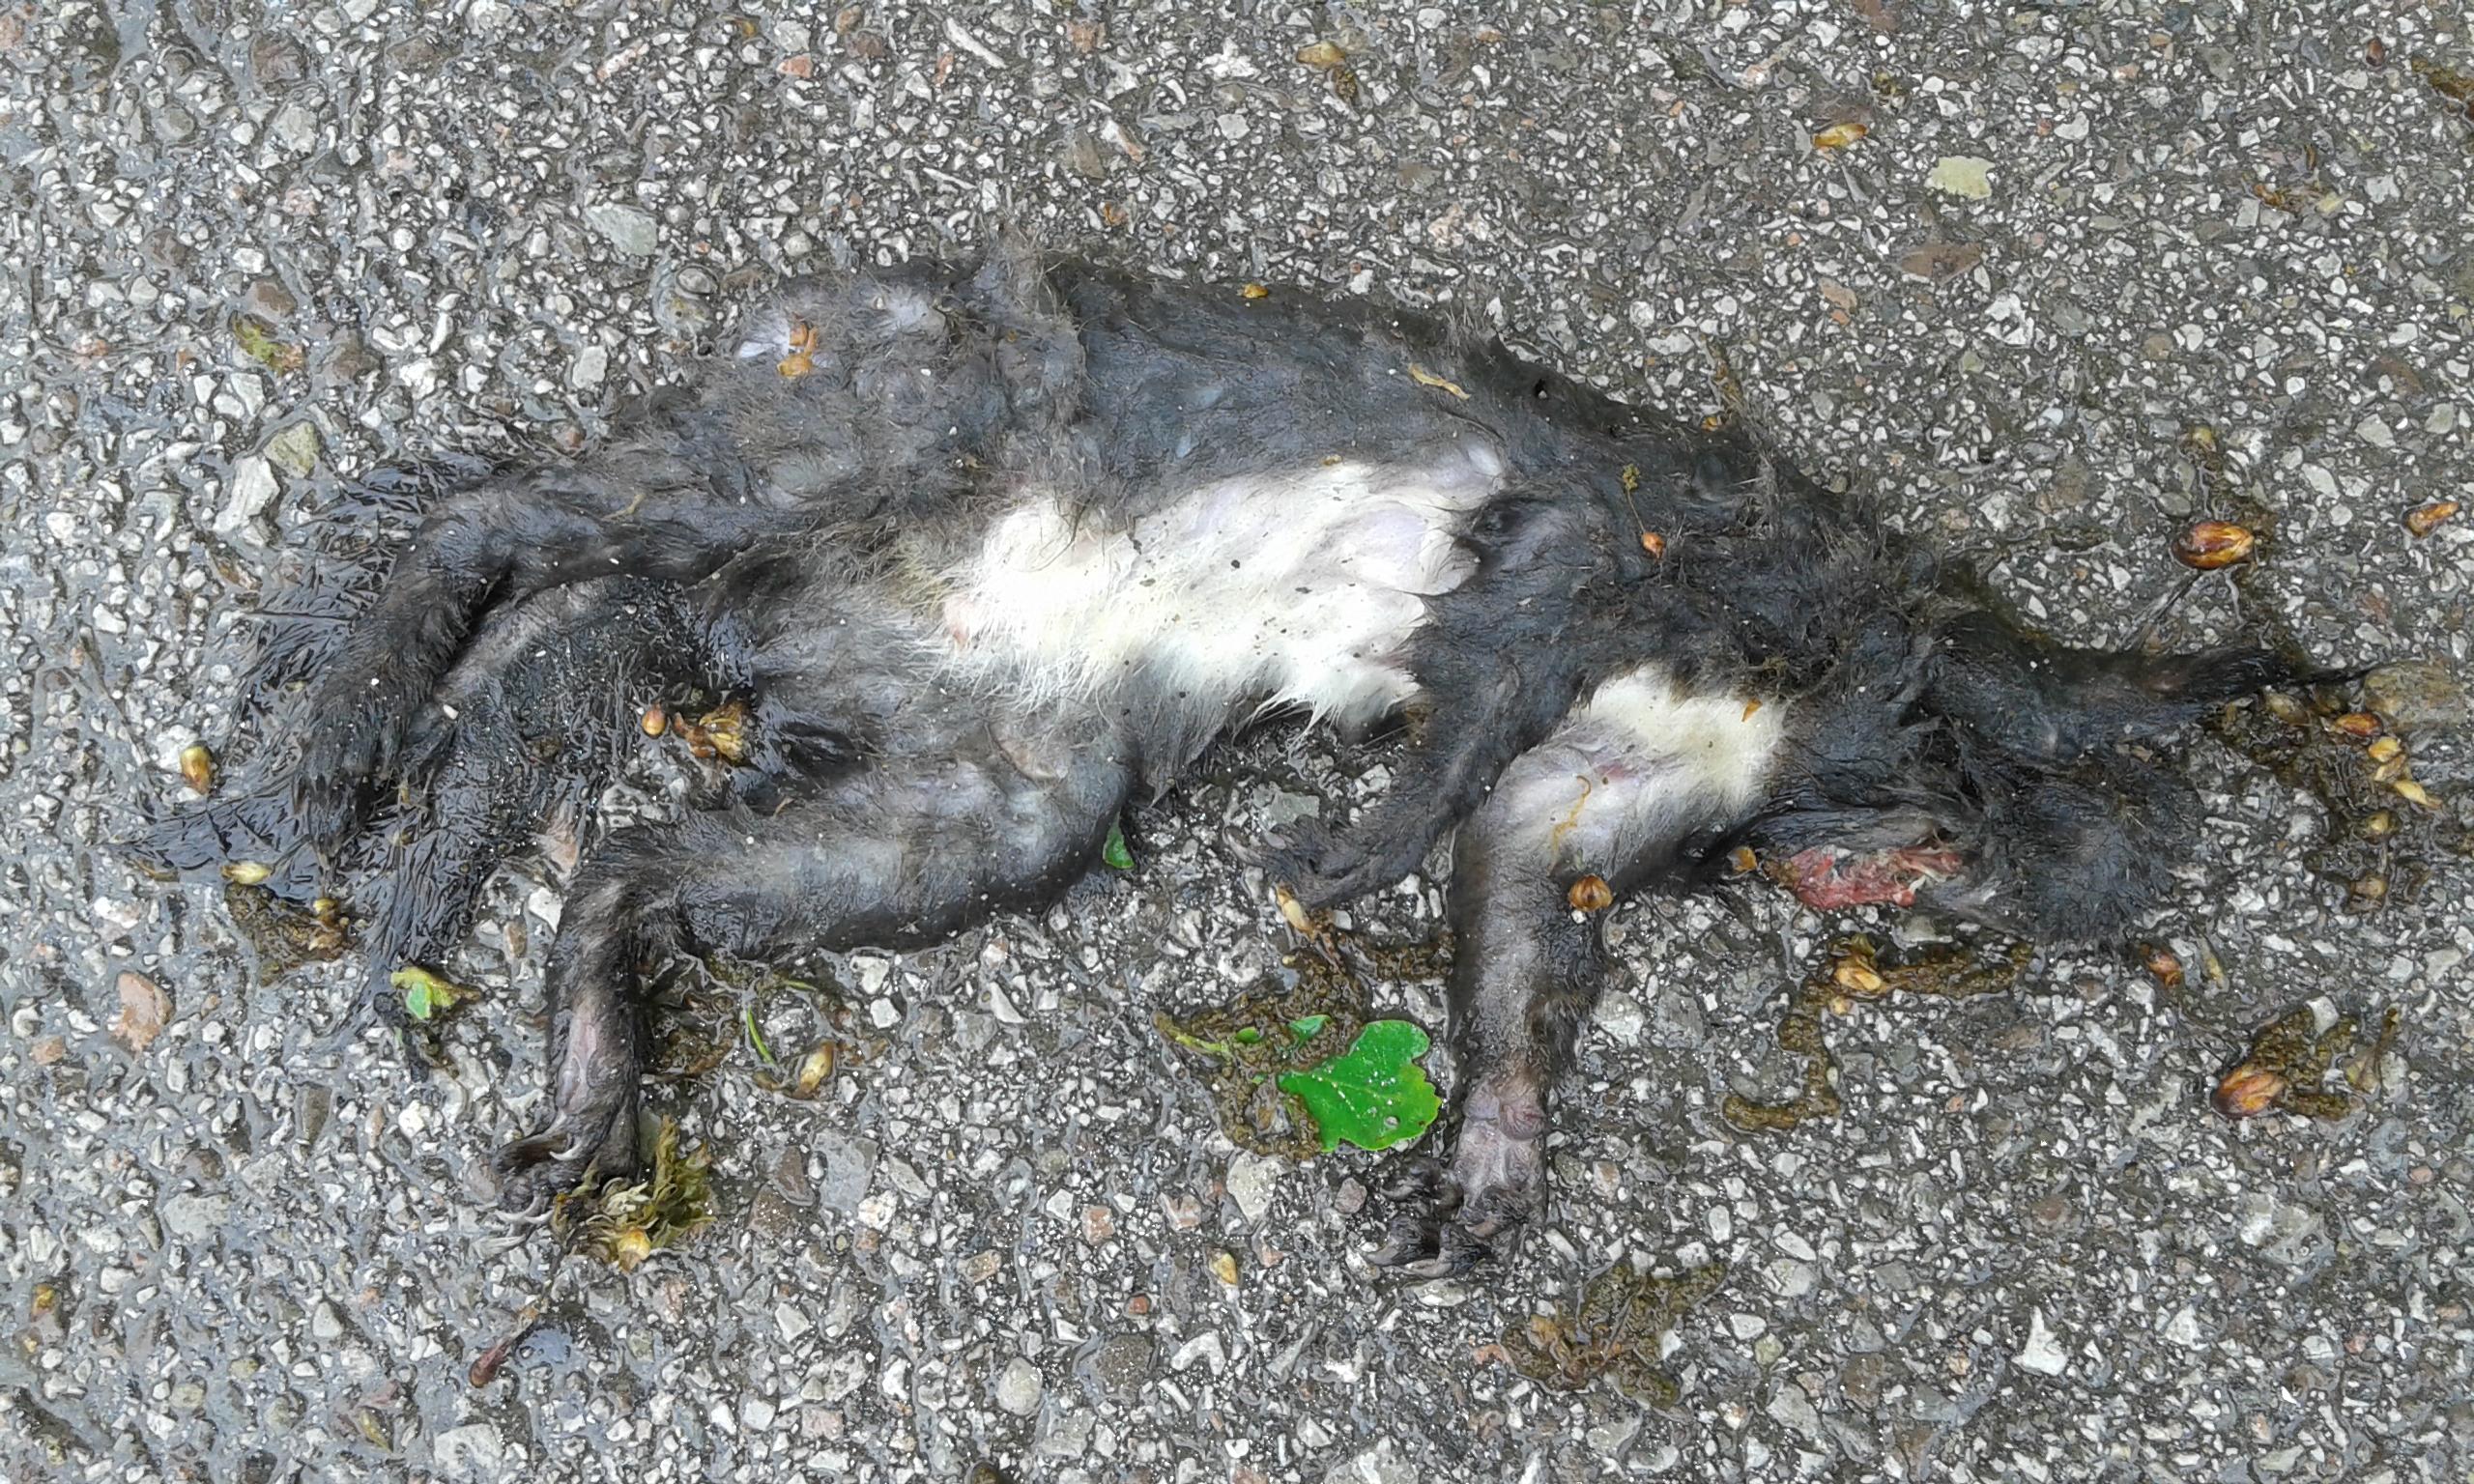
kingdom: Animalia
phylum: Chordata
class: Mammalia
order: Rodentia
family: Sciuridae
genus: Sciurus
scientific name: Sciurus vulgaris
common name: Eurasian red squirrel
